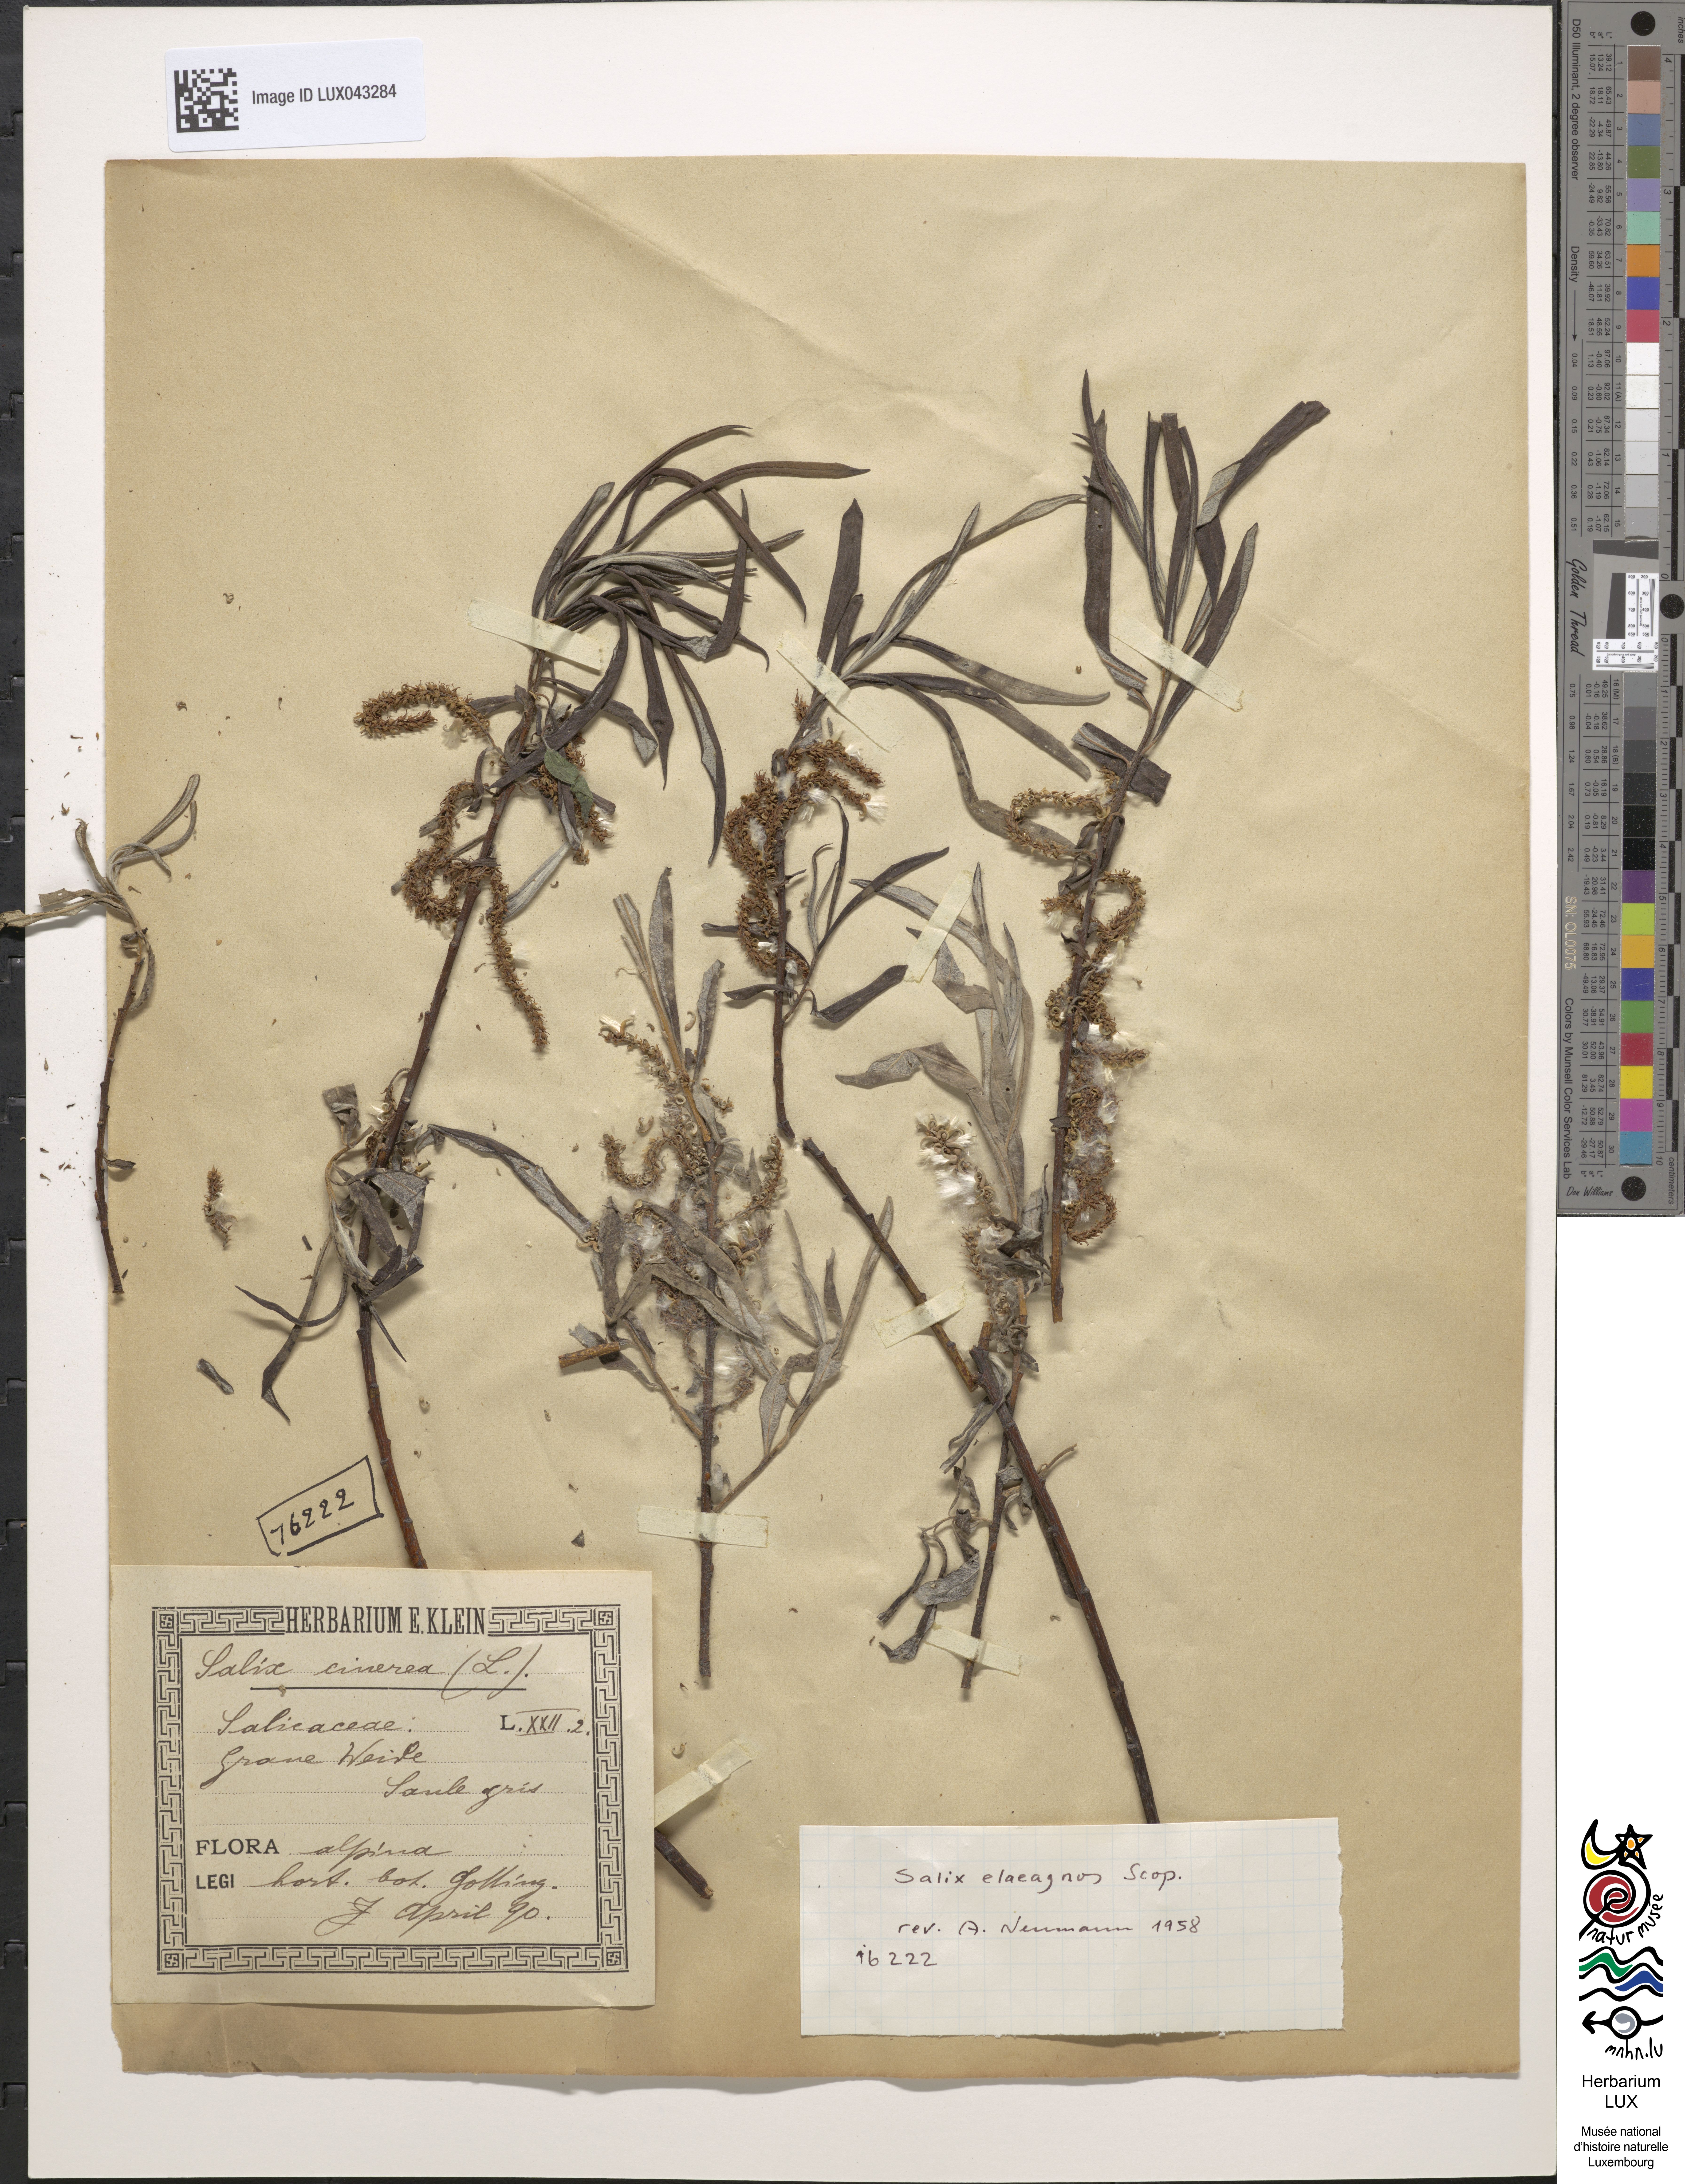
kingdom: Plantae
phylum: Tracheophyta
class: Magnoliopsida
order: Malpighiales
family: Salicaceae
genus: Salix
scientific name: Salix cinerea
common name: Common sallow
